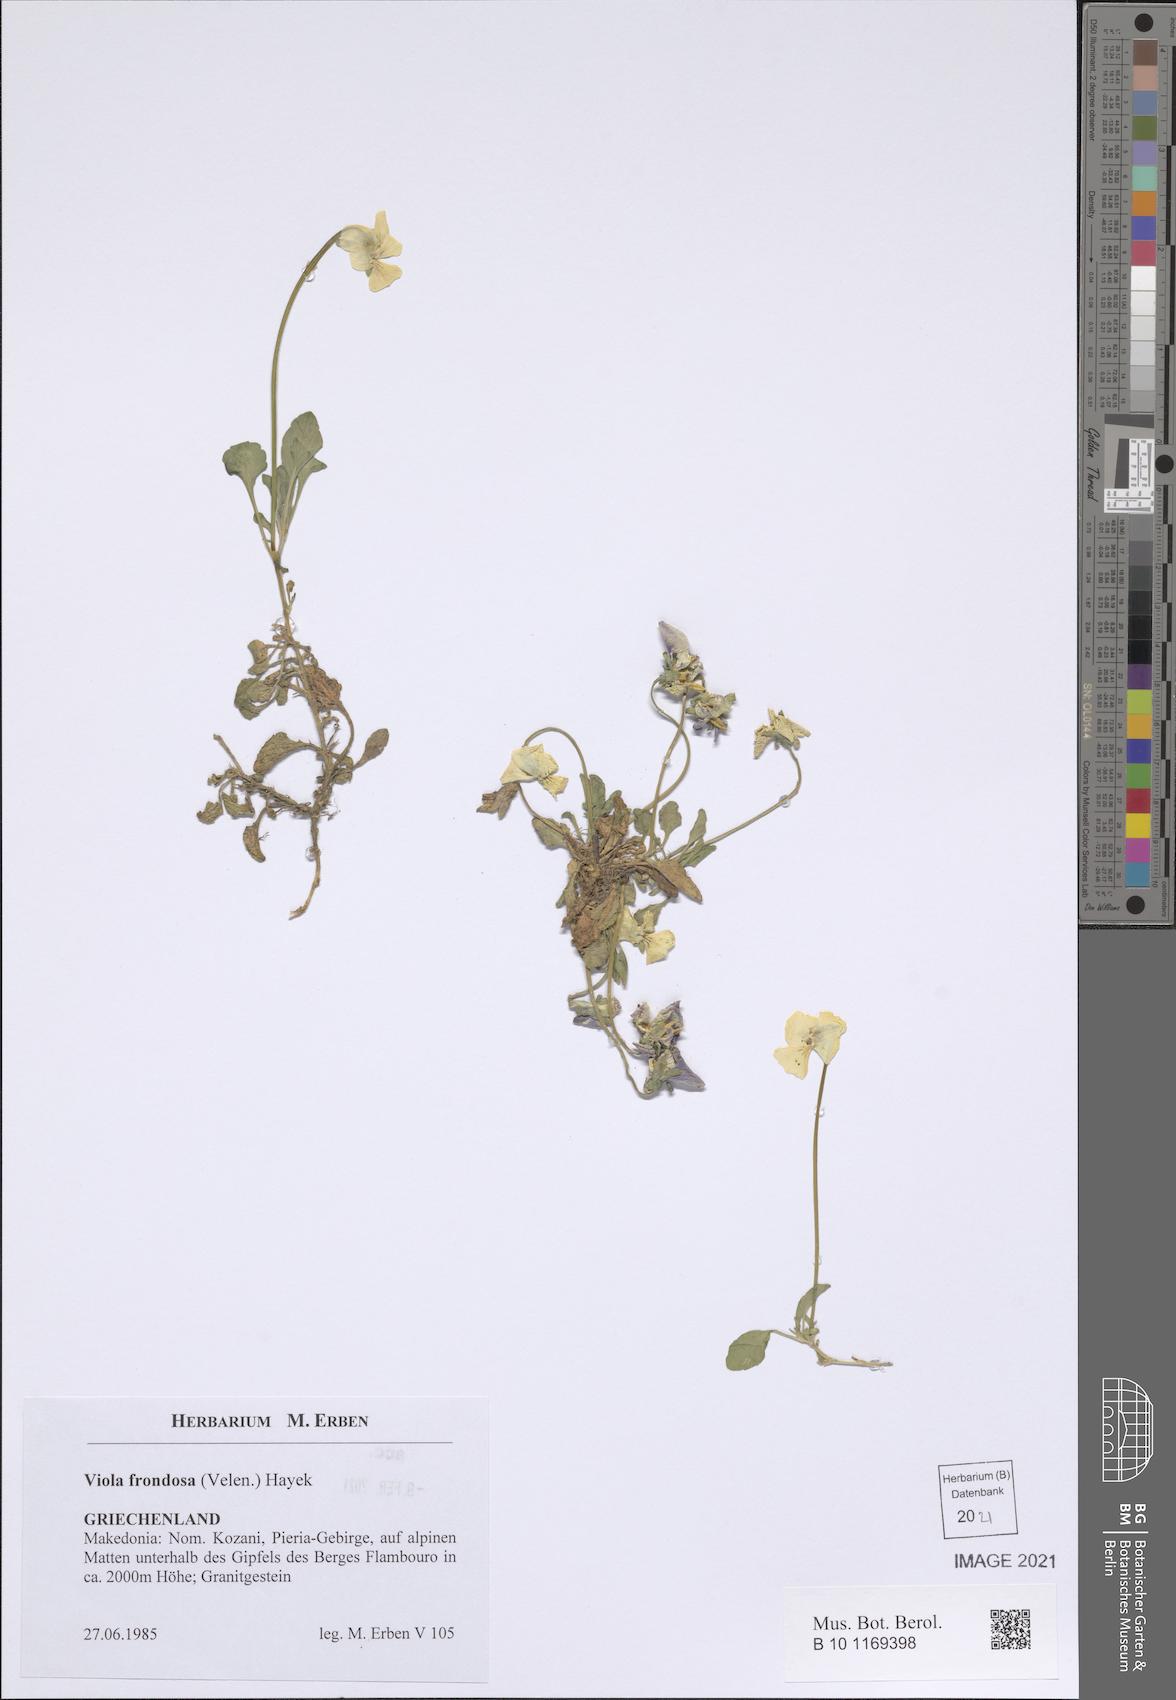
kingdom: Plantae
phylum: Tracheophyta
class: Magnoliopsida
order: Malpighiales
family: Violaceae
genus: Viola
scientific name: Viola frondosa
